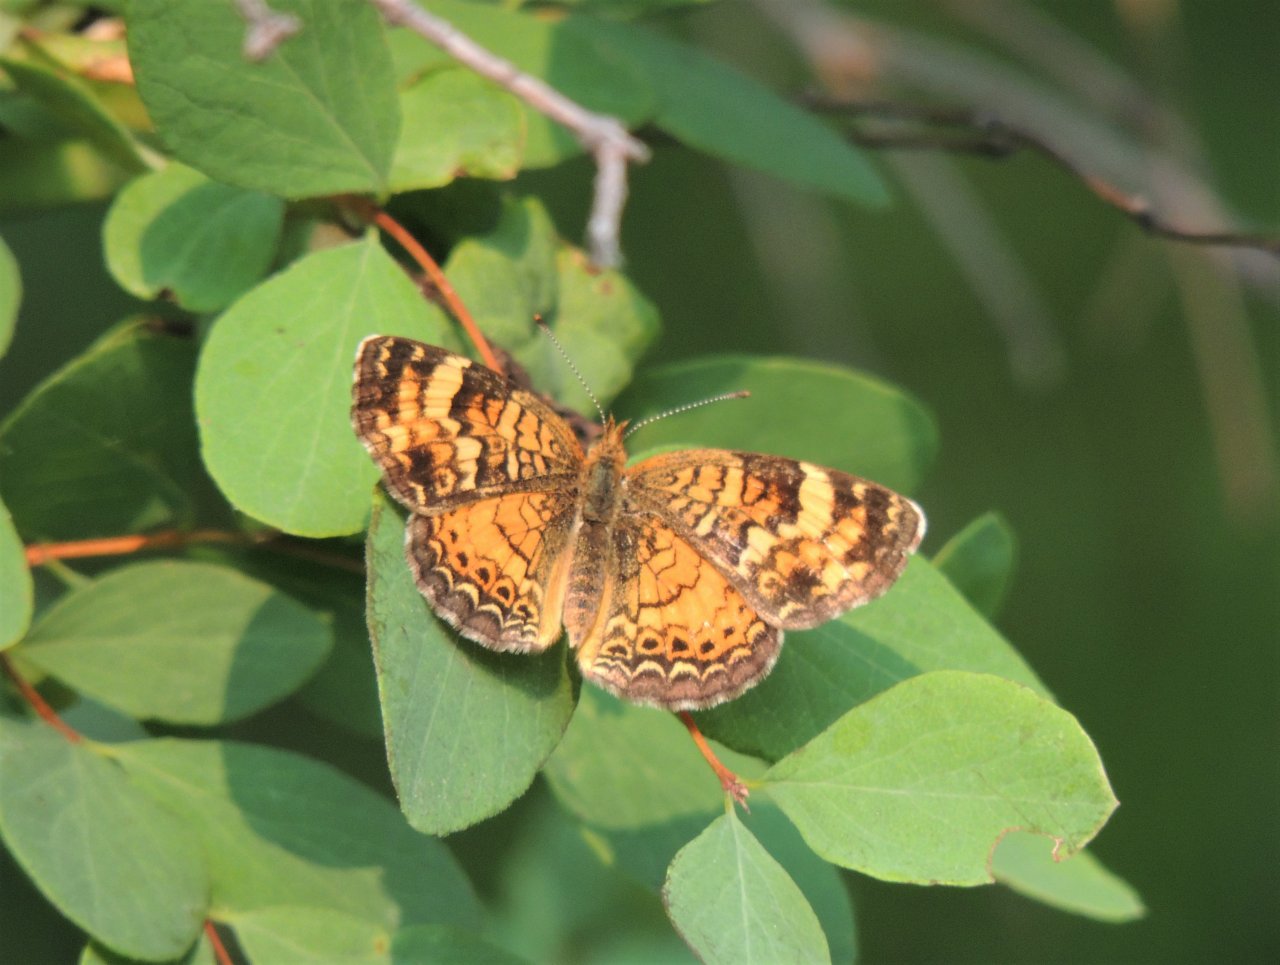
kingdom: Animalia
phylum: Arthropoda
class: Insecta
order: Lepidoptera
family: Nymphalidae
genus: Phyciodes
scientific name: Phyciodes tharos
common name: Field Crescent
